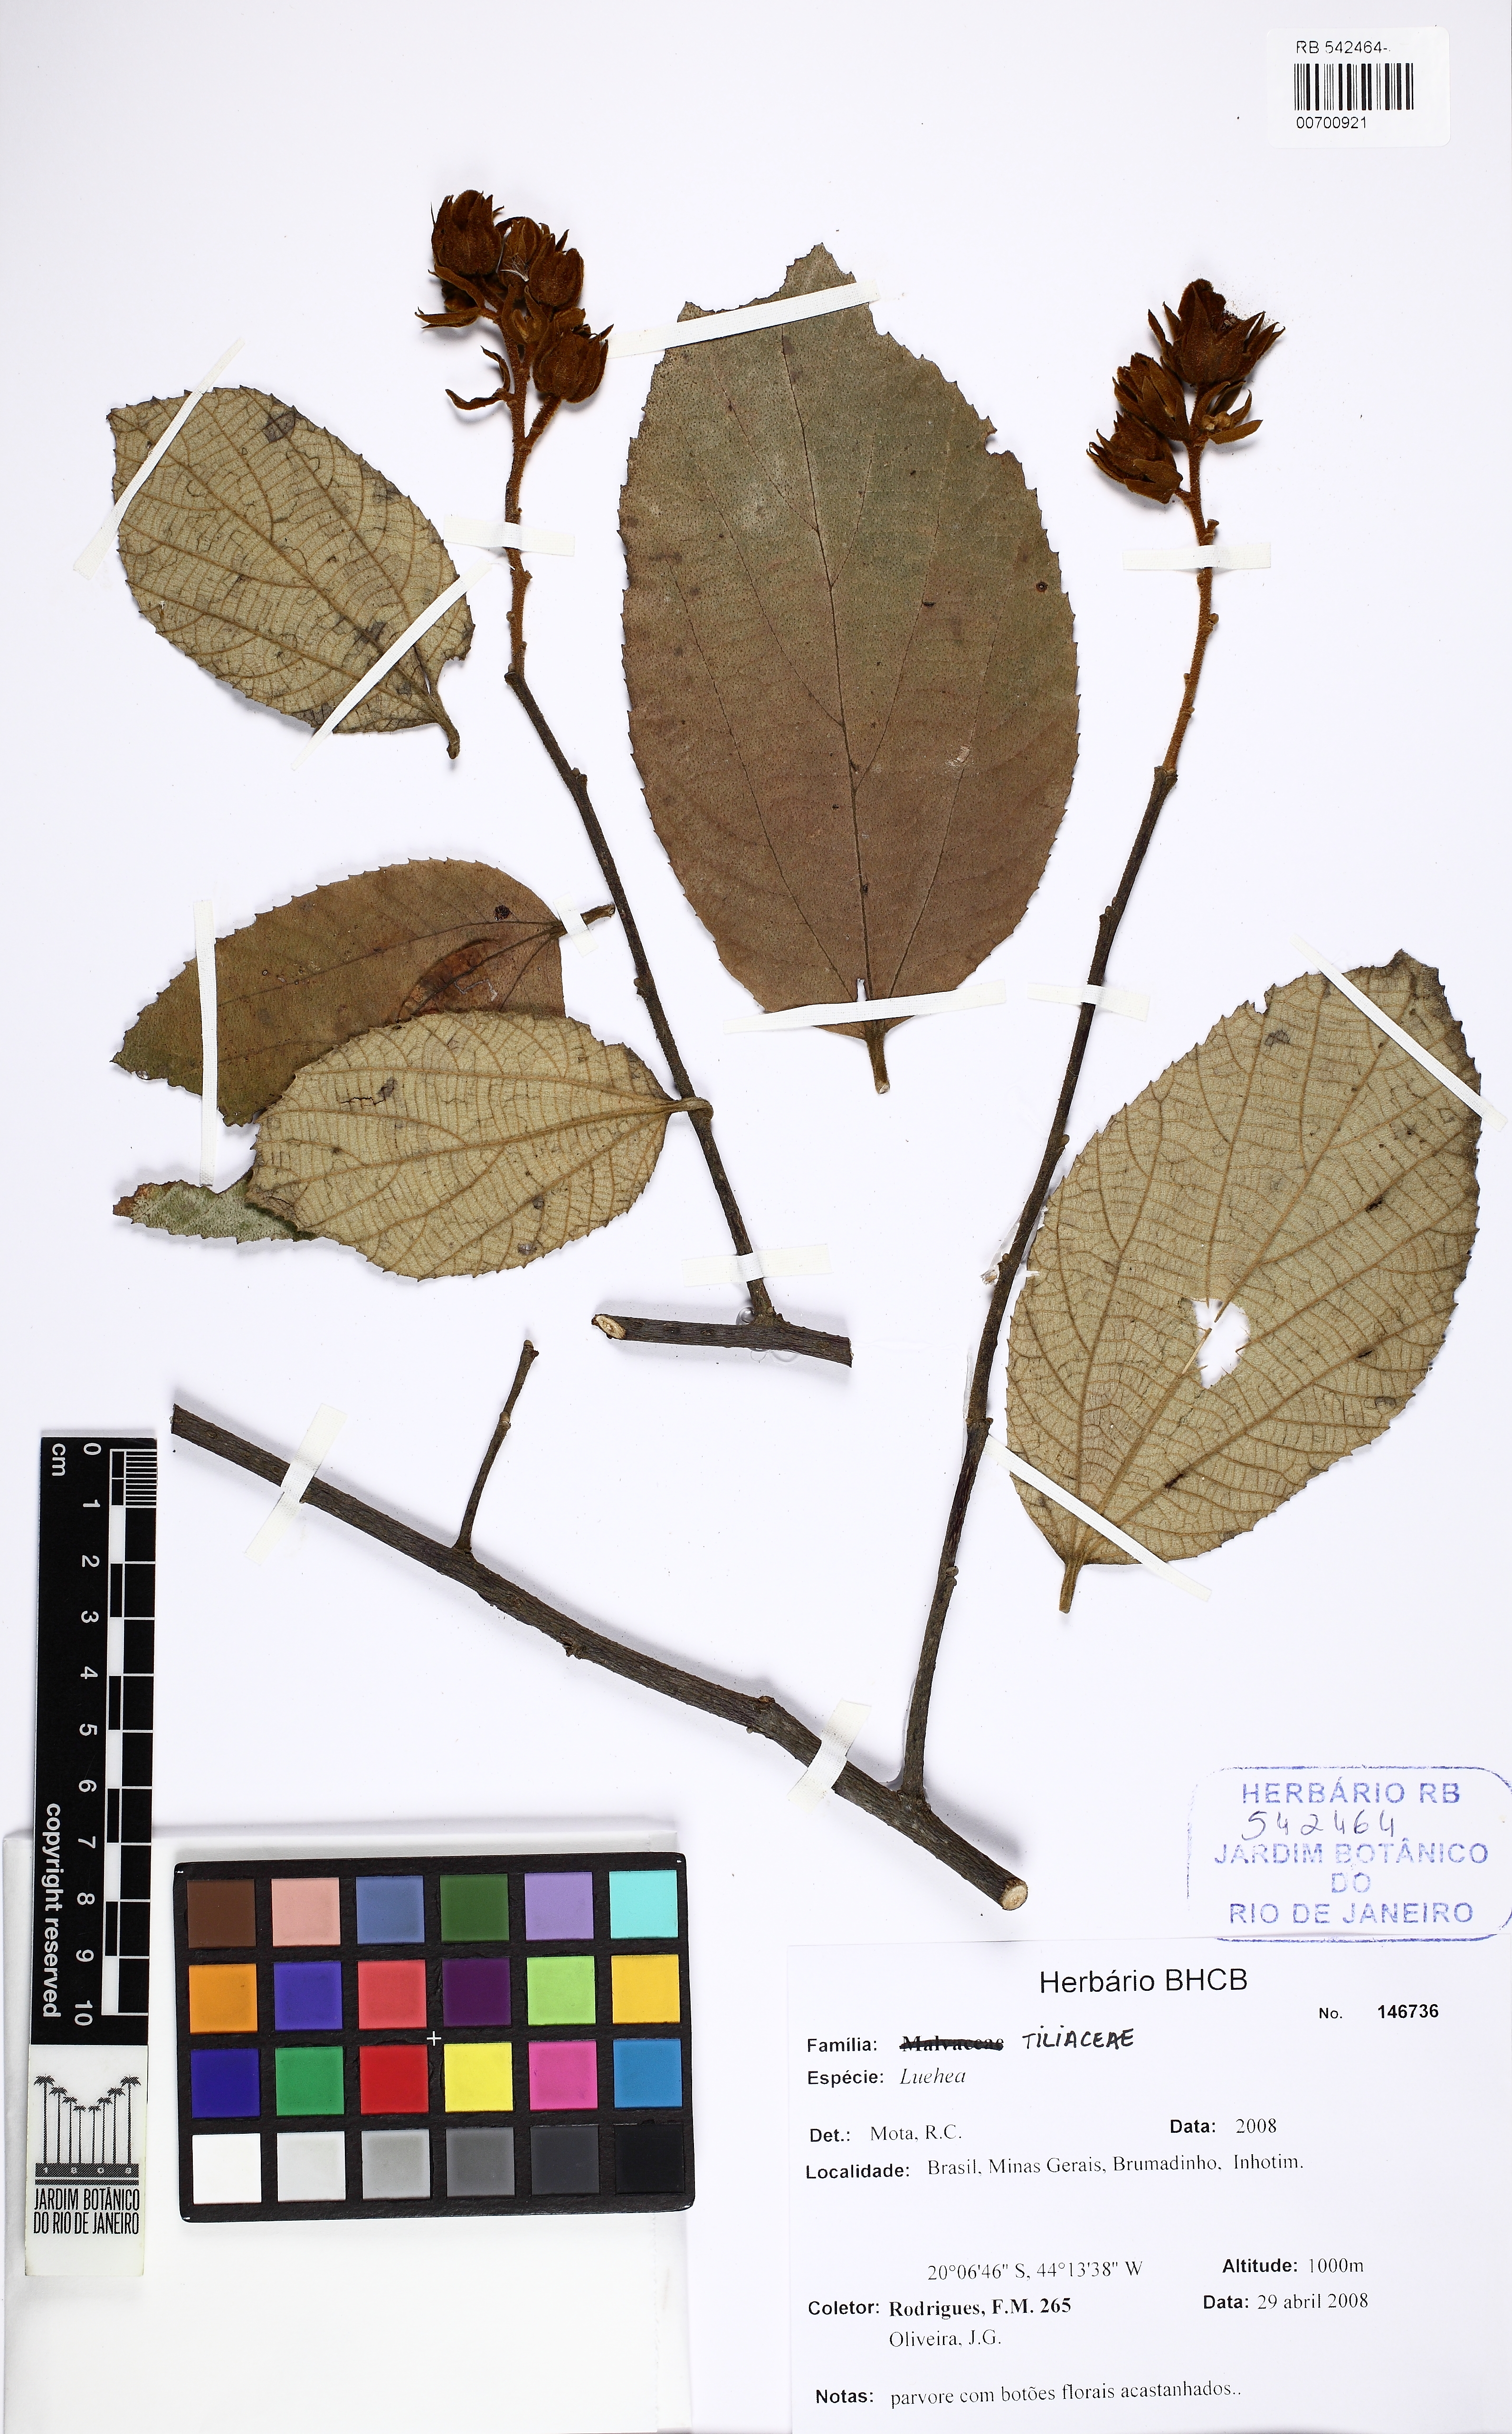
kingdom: Plantae
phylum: Tracheophyta
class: Magnoliopsida
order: Malvales
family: Malvaceae
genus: Luehea
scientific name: Luehea
